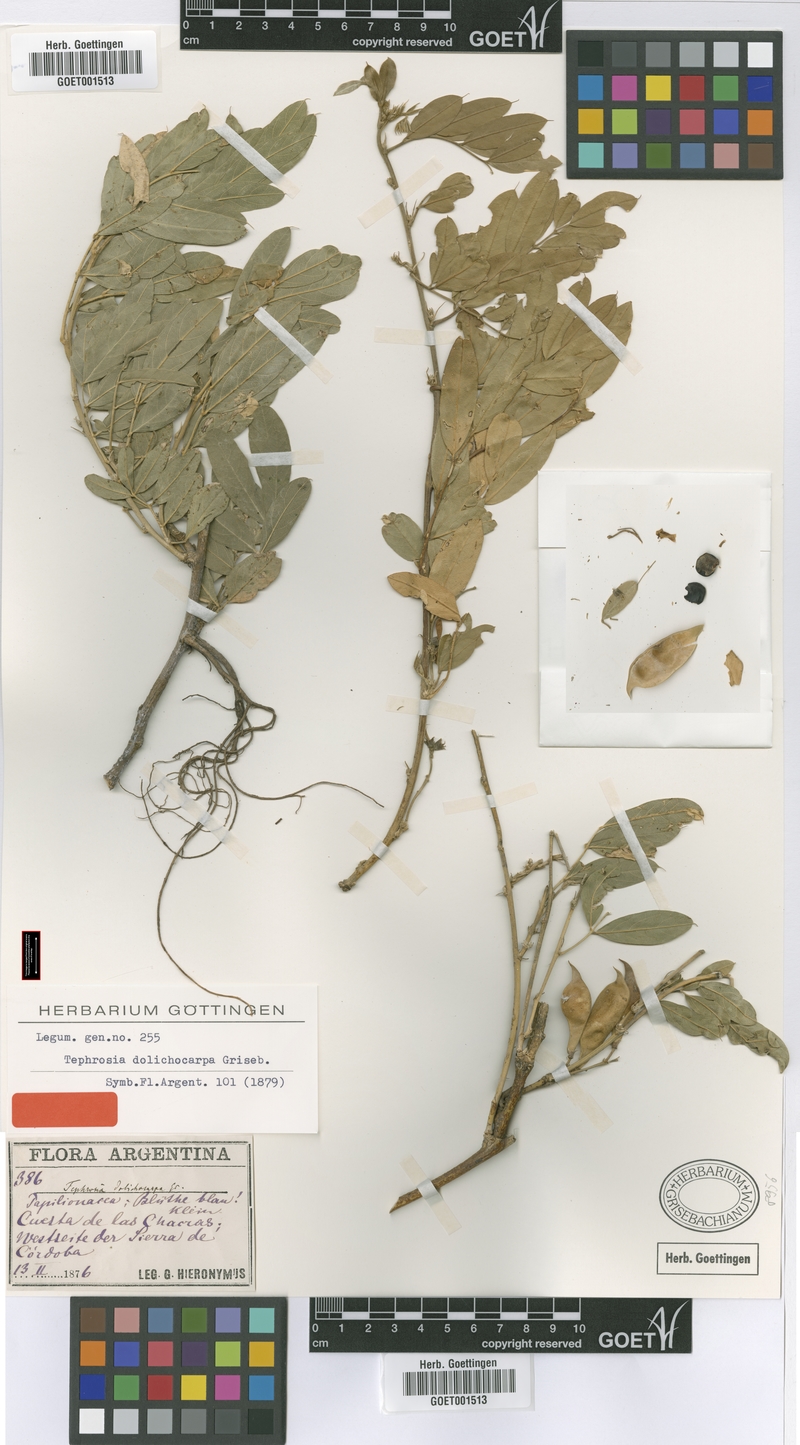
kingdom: Plantae
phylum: Tracheophyta
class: Magnoliopsida
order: Fabales
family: Fabaceae
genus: Apurimacia
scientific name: Apurimacia dolichocarpa
